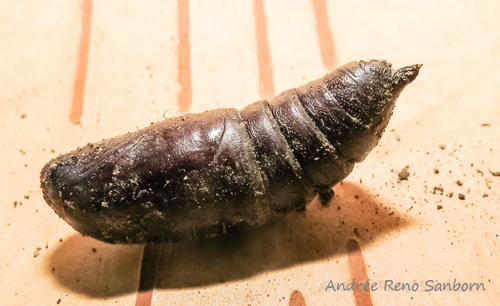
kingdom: Animalia
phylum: Arthropoda
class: Insecta
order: Lepidoptera
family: Sphingidae
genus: Paonias
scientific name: Paonias excaecata
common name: Blind-eyed sphinx
